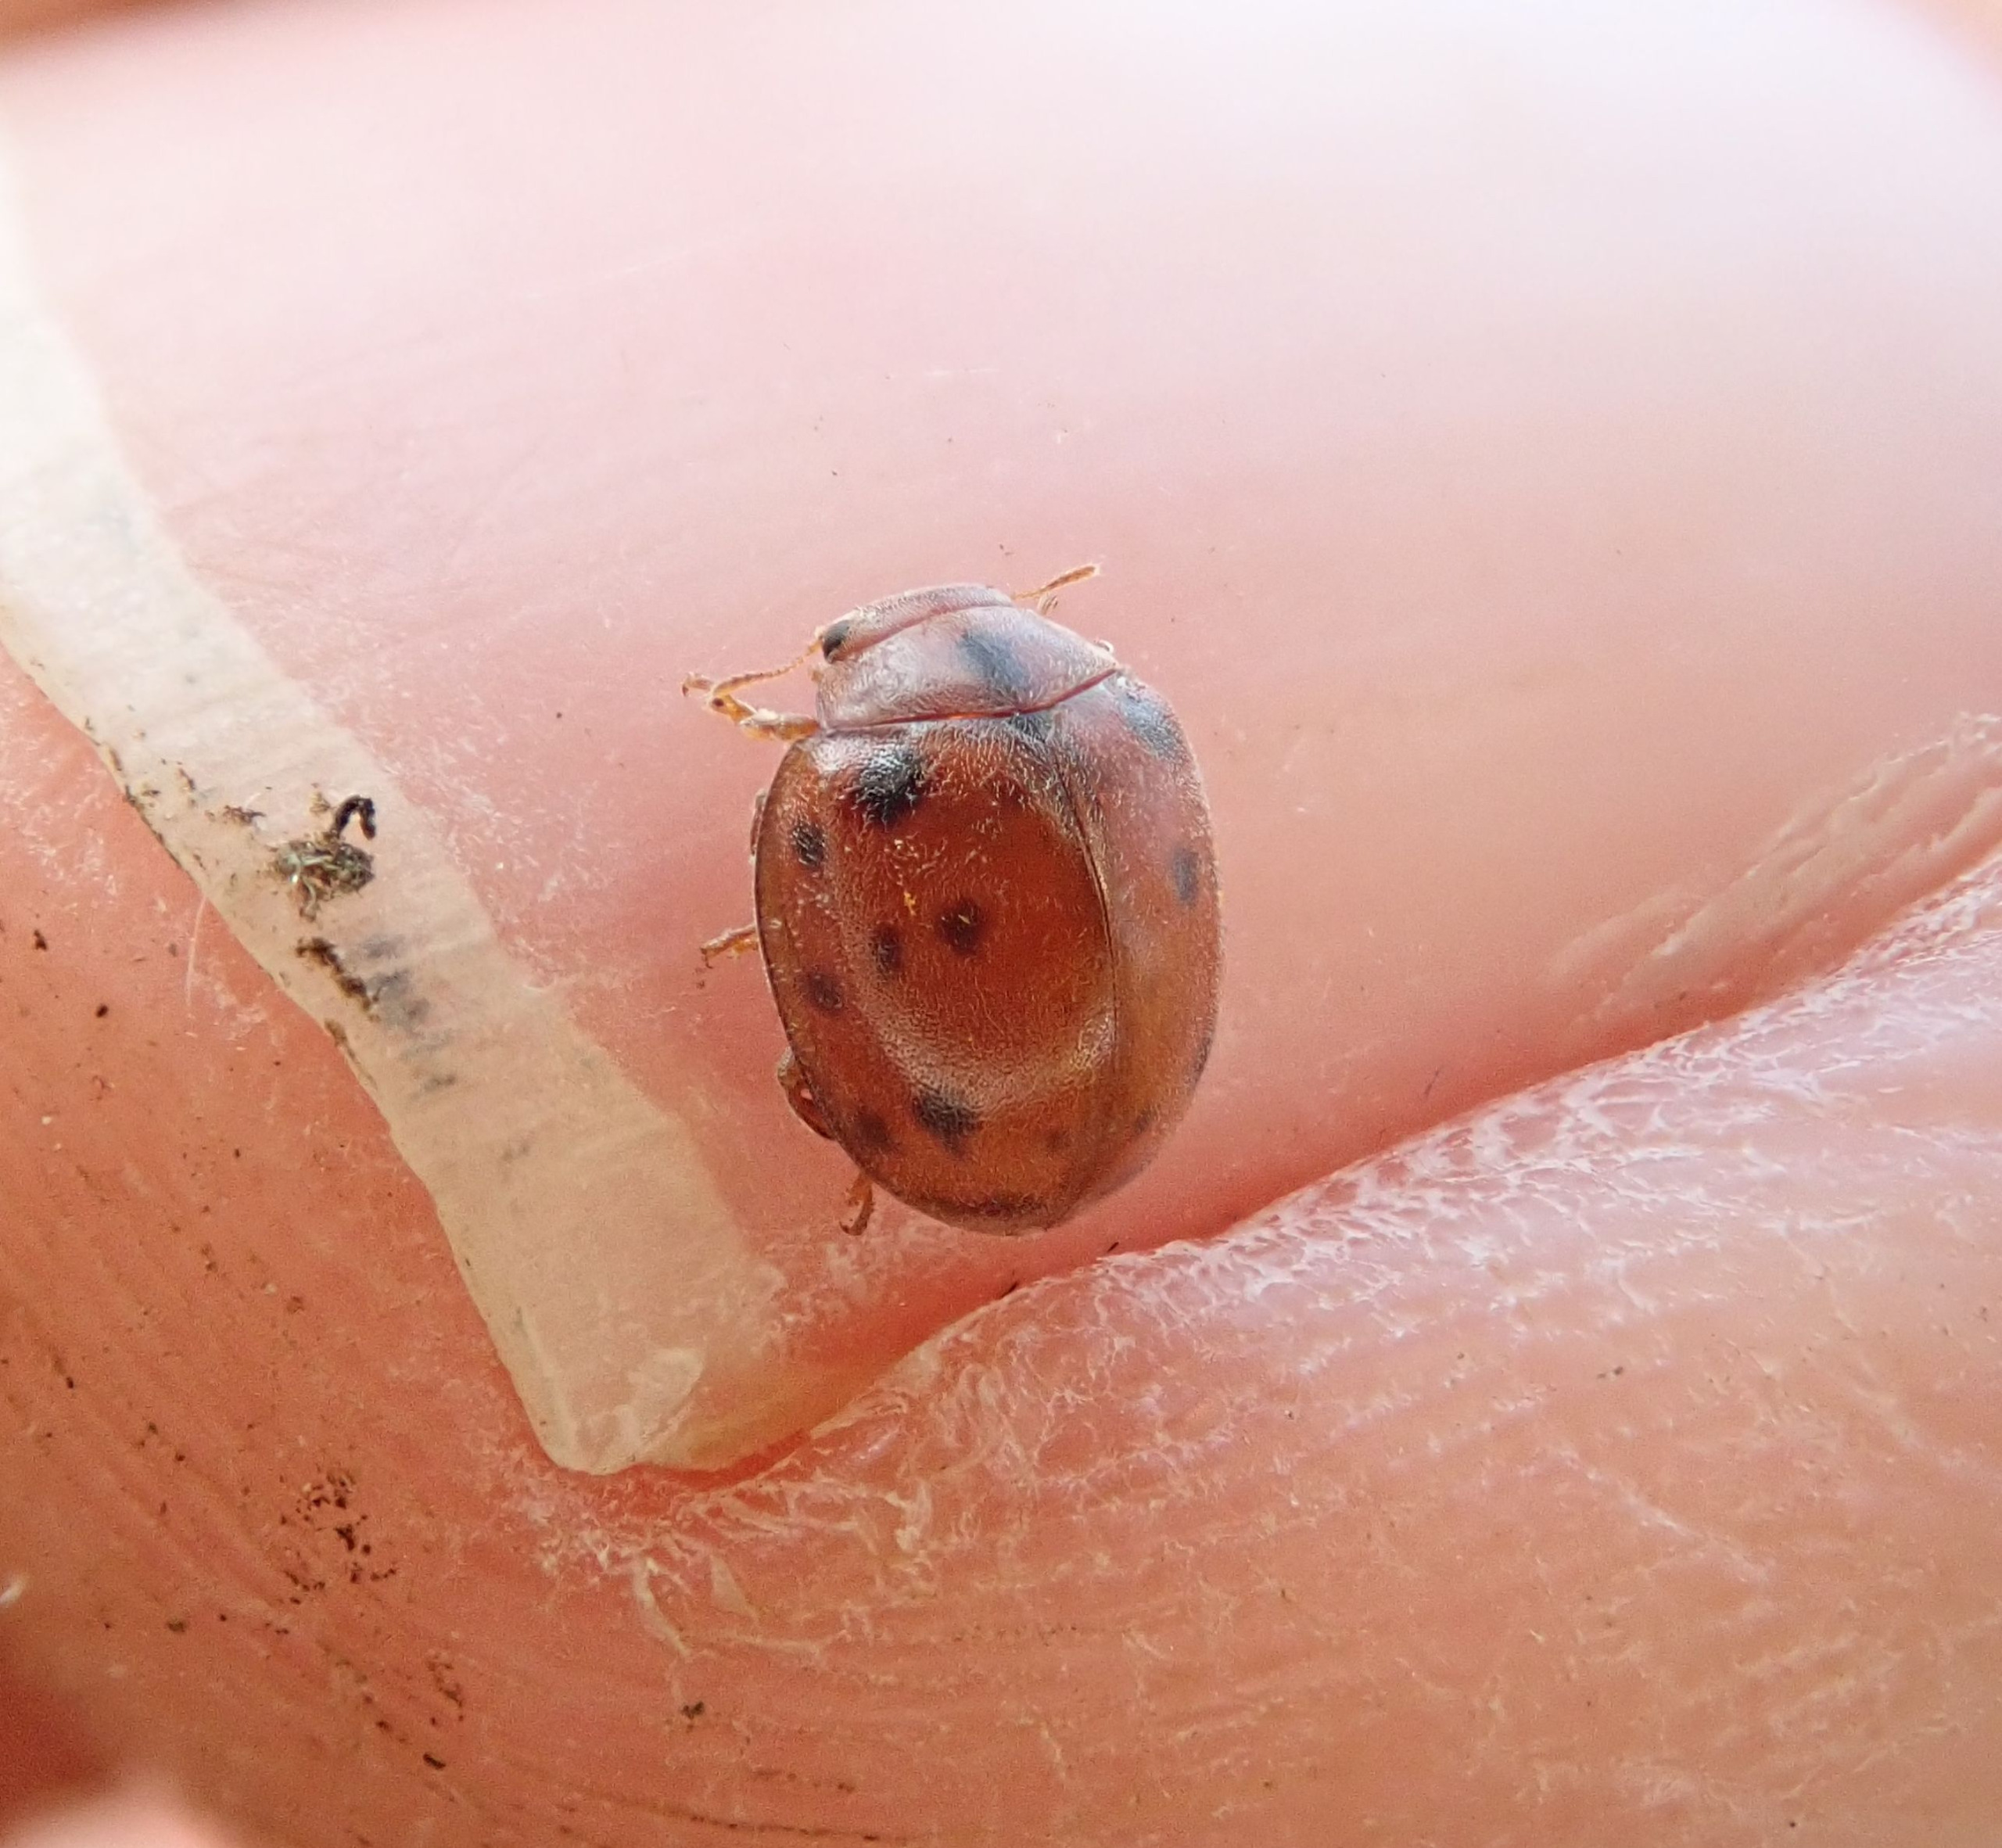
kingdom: Animalia
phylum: Arthropoda
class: Insecta
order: Coleoptera
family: Coccinellidae
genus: Subcoccinella
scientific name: Subcoccinella vigintiquatuorpunctata
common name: Fireogtyveplettet mariehøne
